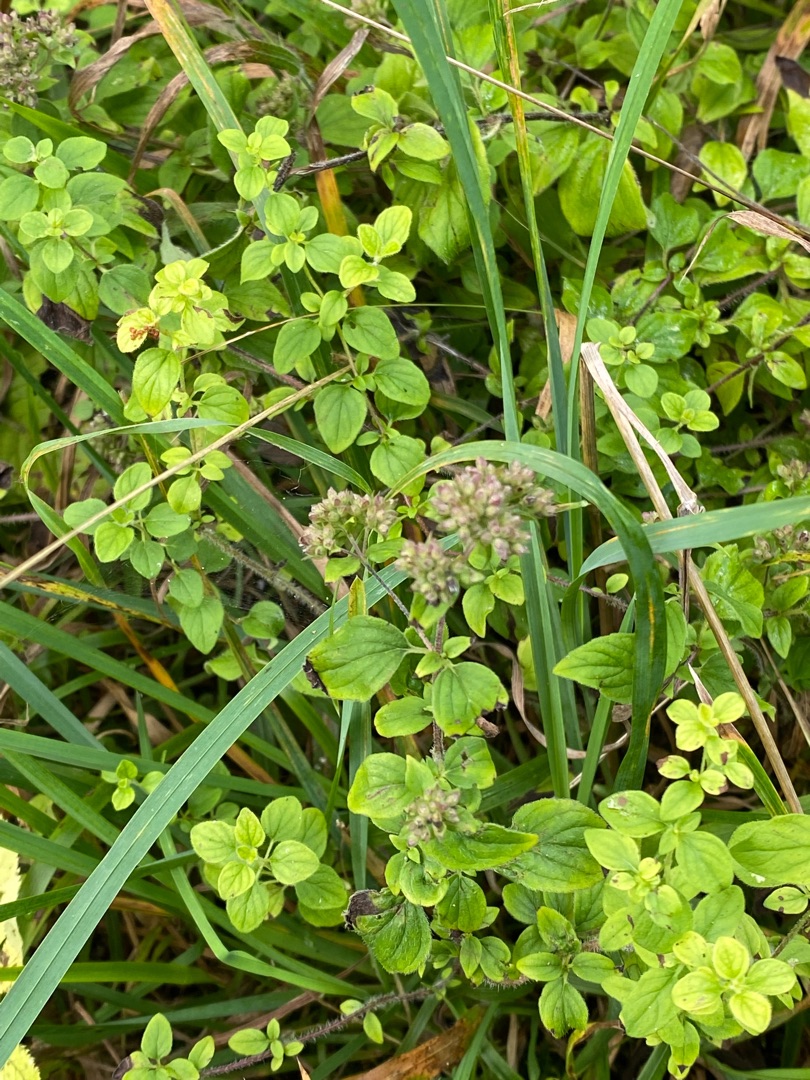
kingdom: Plantae
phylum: Tracheophyta
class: Magnoliopsida
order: Lamiales
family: Lamiaceae
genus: Origanum
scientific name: Origanum vulgare
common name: Merian
